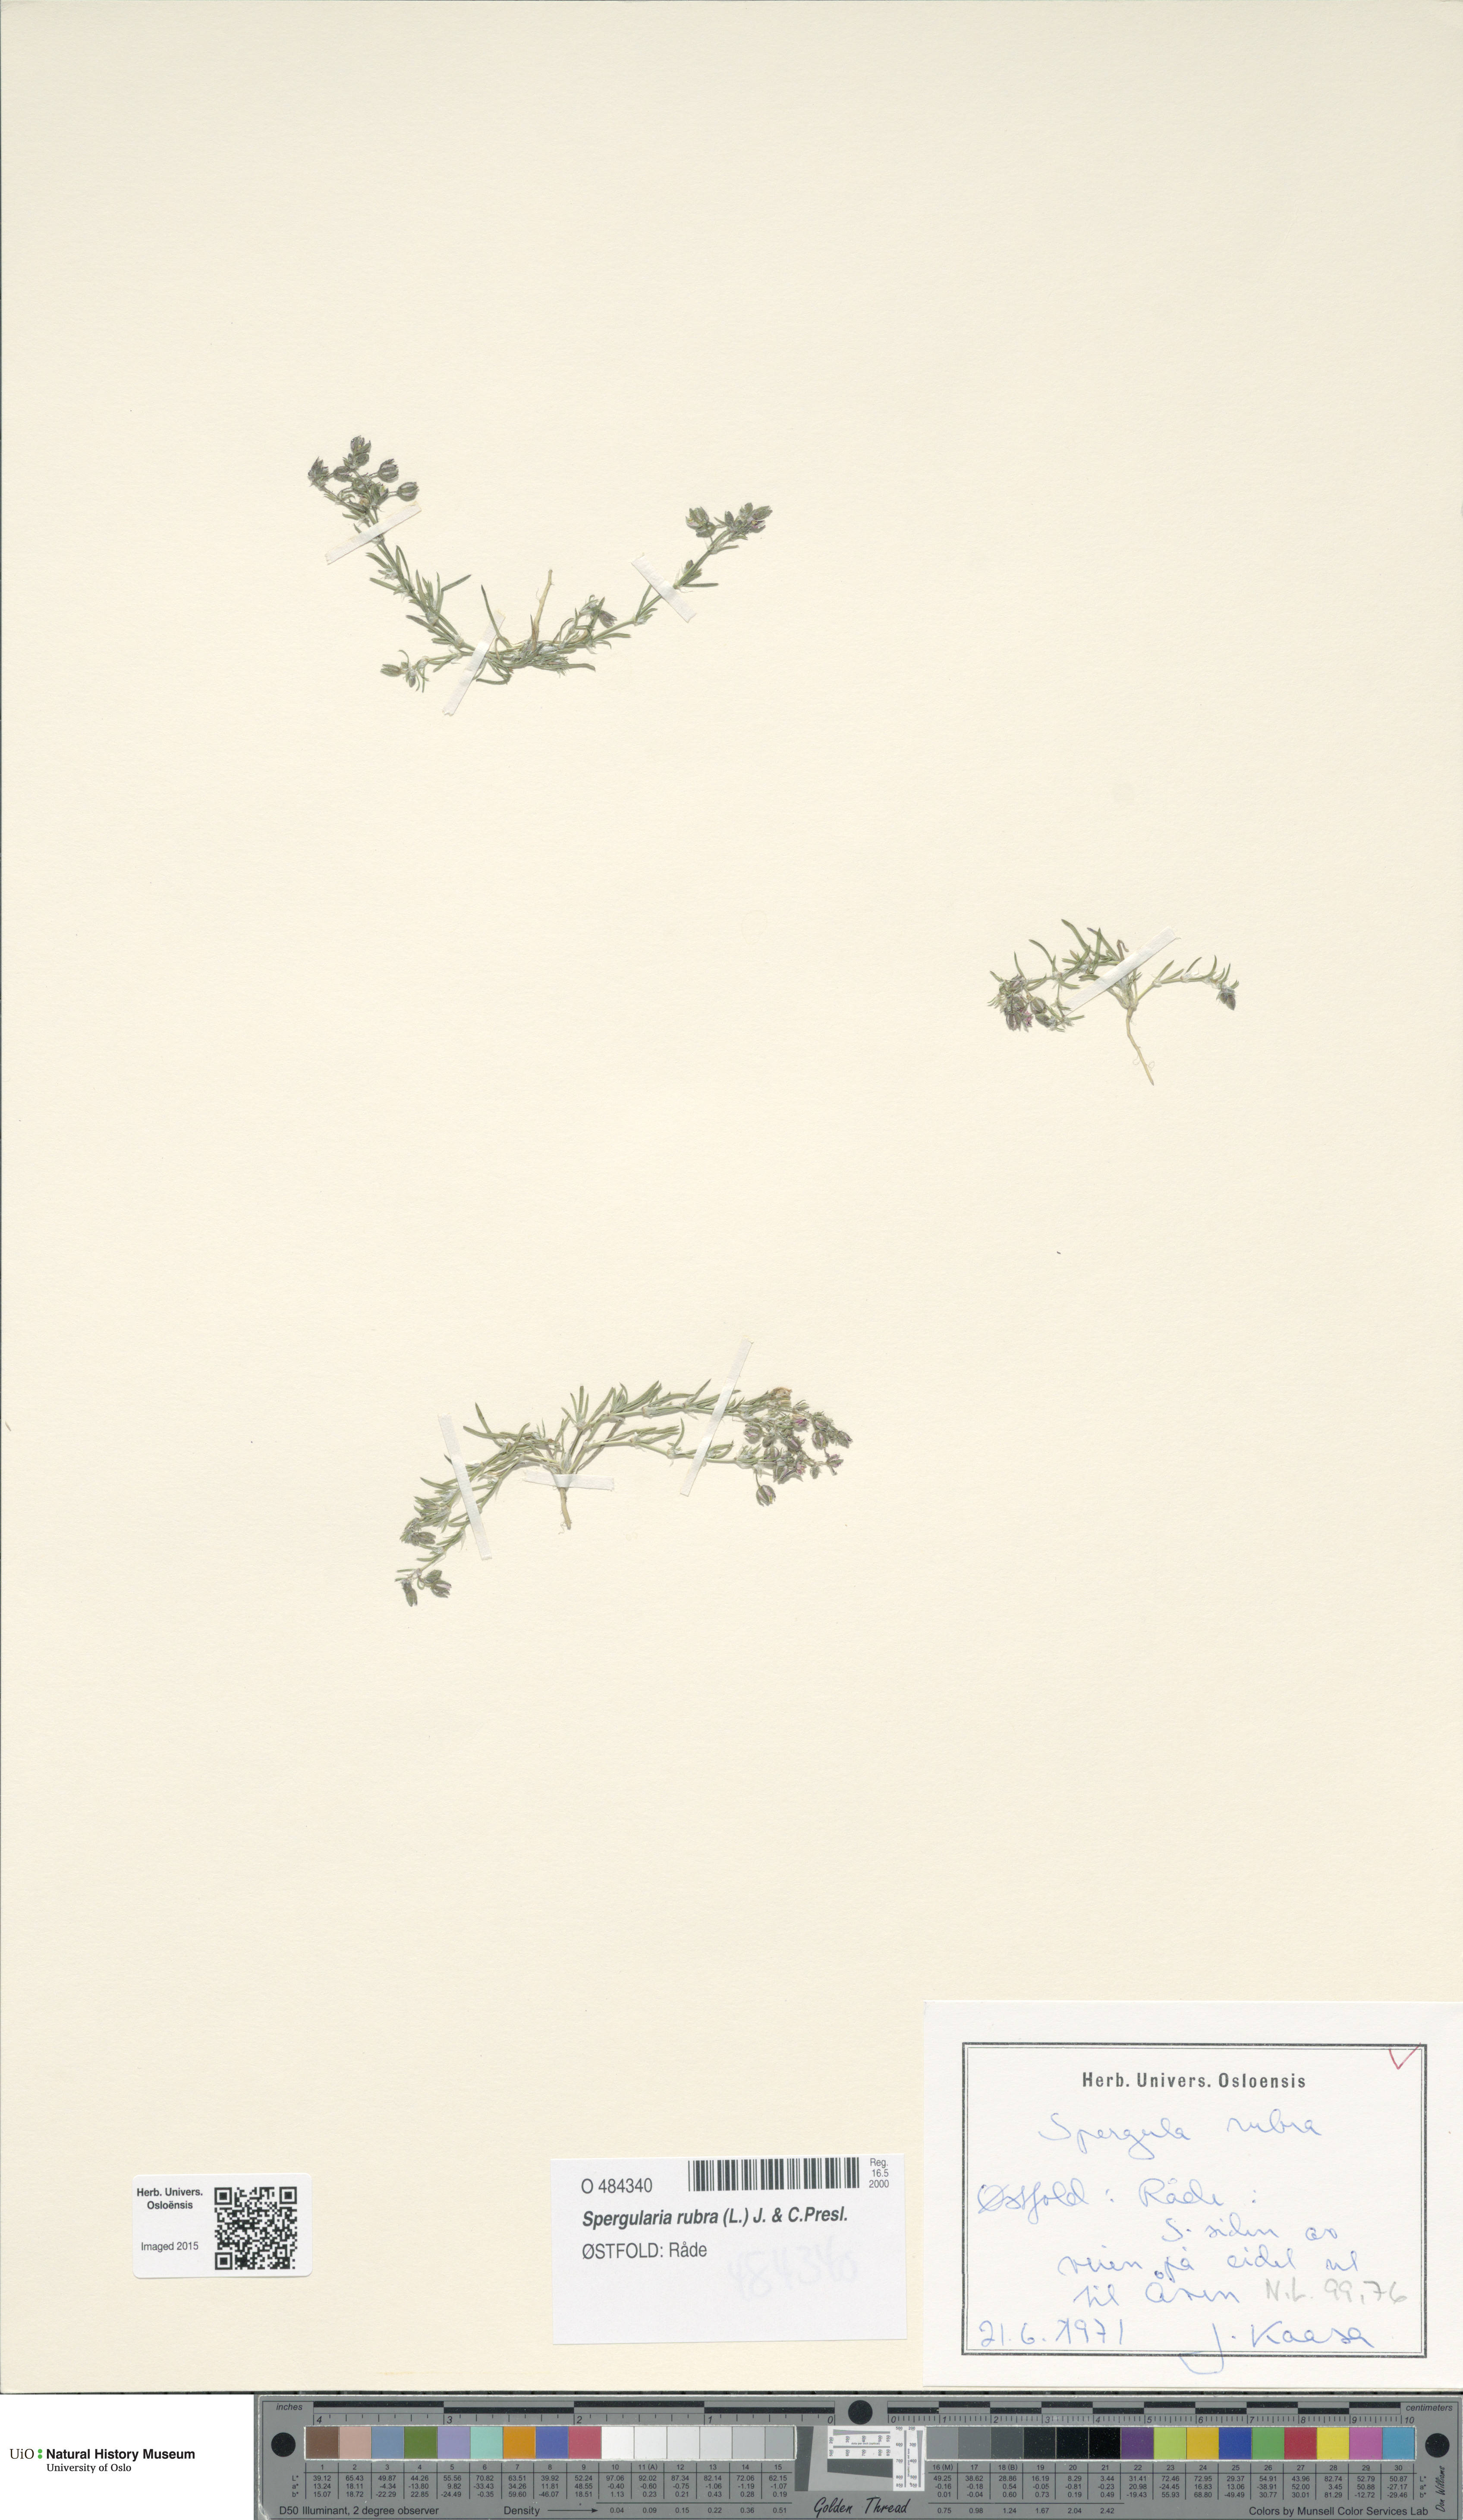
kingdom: Plantae
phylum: Tracheophyta
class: Magnoliopsida
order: Caryophyllales
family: Caryophyllaceae
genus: Spergularia
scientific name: Spergularia rubra
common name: Red sand-spurrey
